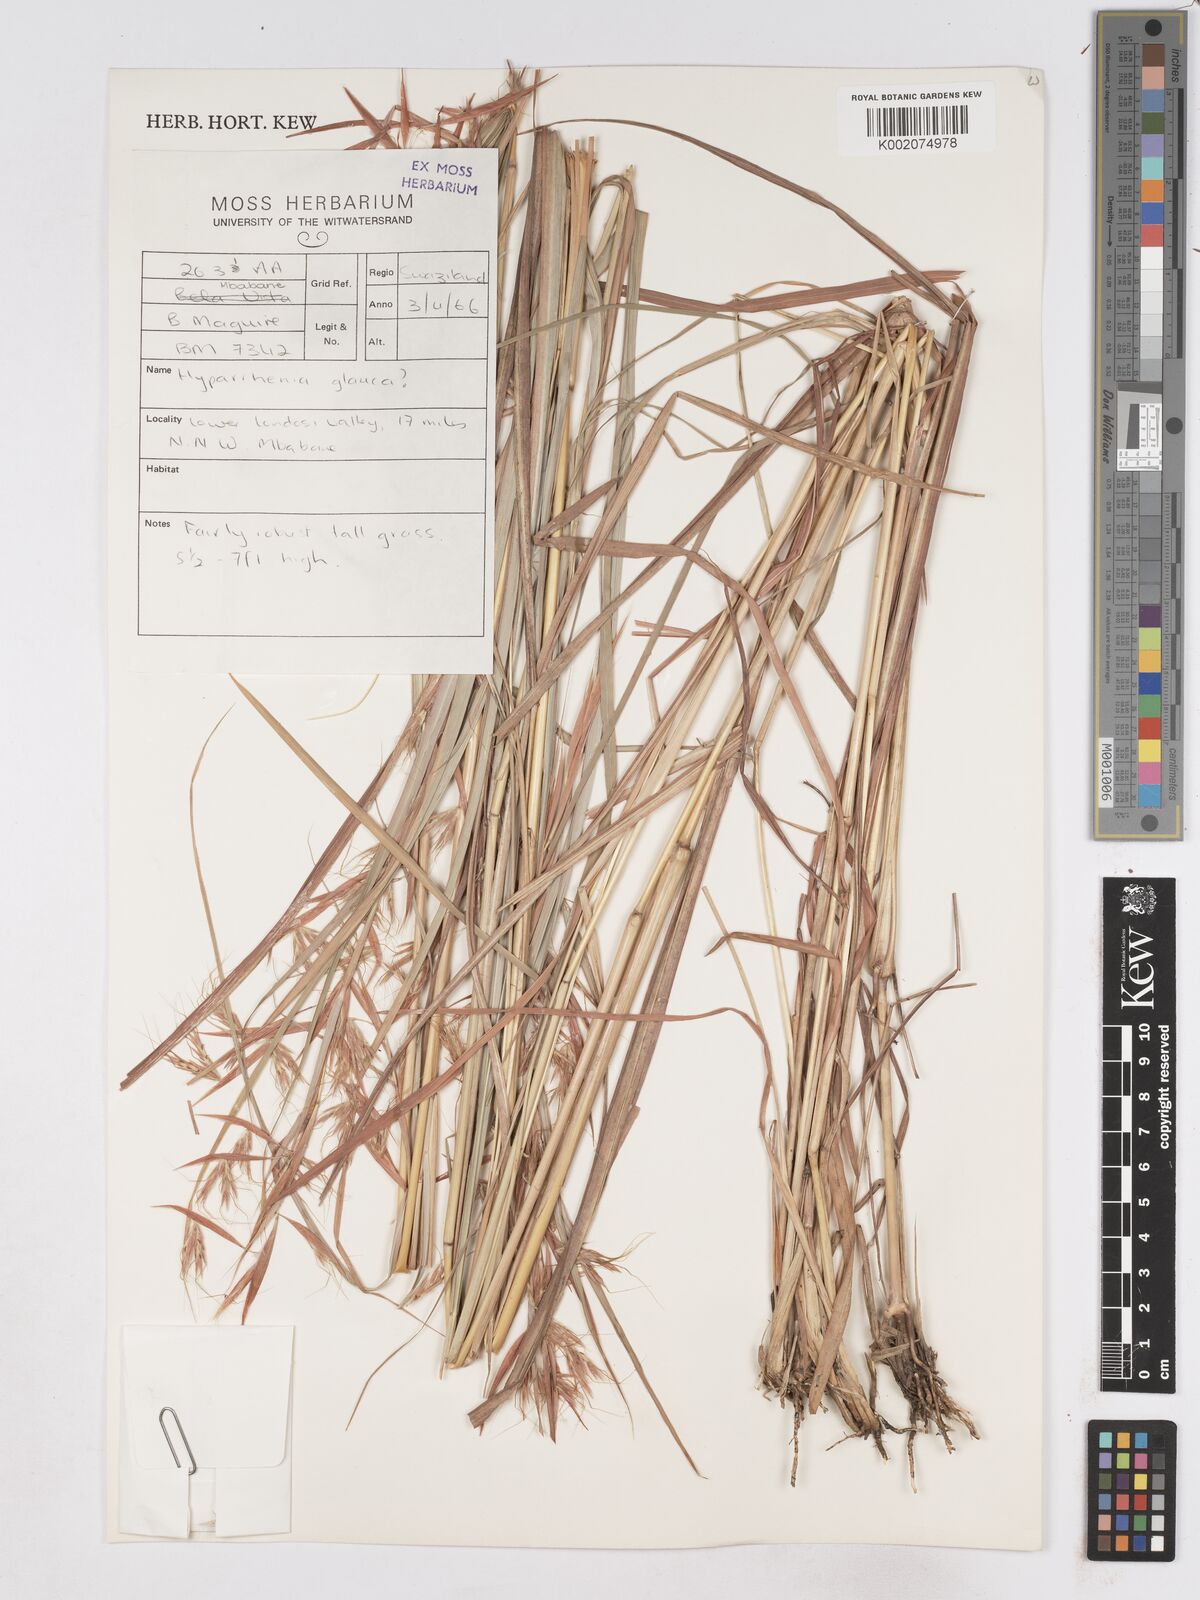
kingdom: Plantae
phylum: Tracheophyta
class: Liliopsida
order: Poales
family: Poaceae
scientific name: Poaceae
